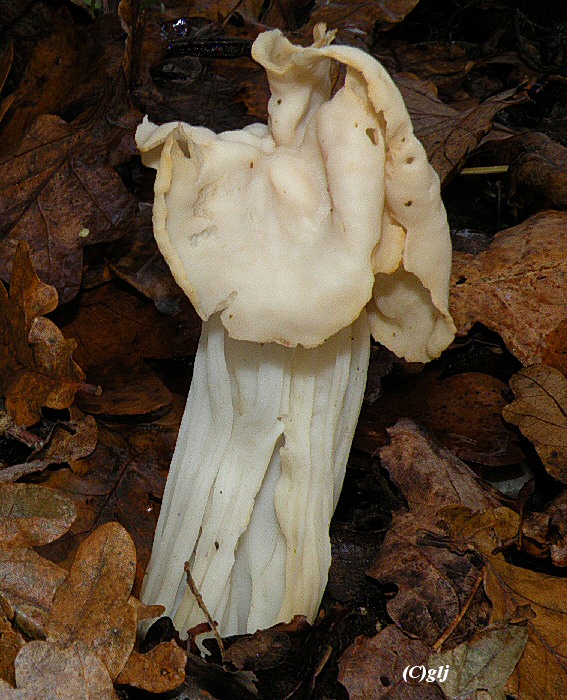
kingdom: Fungi
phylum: Ascomycota
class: Pezizomycetes
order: Pezizales
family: Helvellaceae
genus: Helvella
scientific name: Helvella crispa
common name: kruset foldhat
